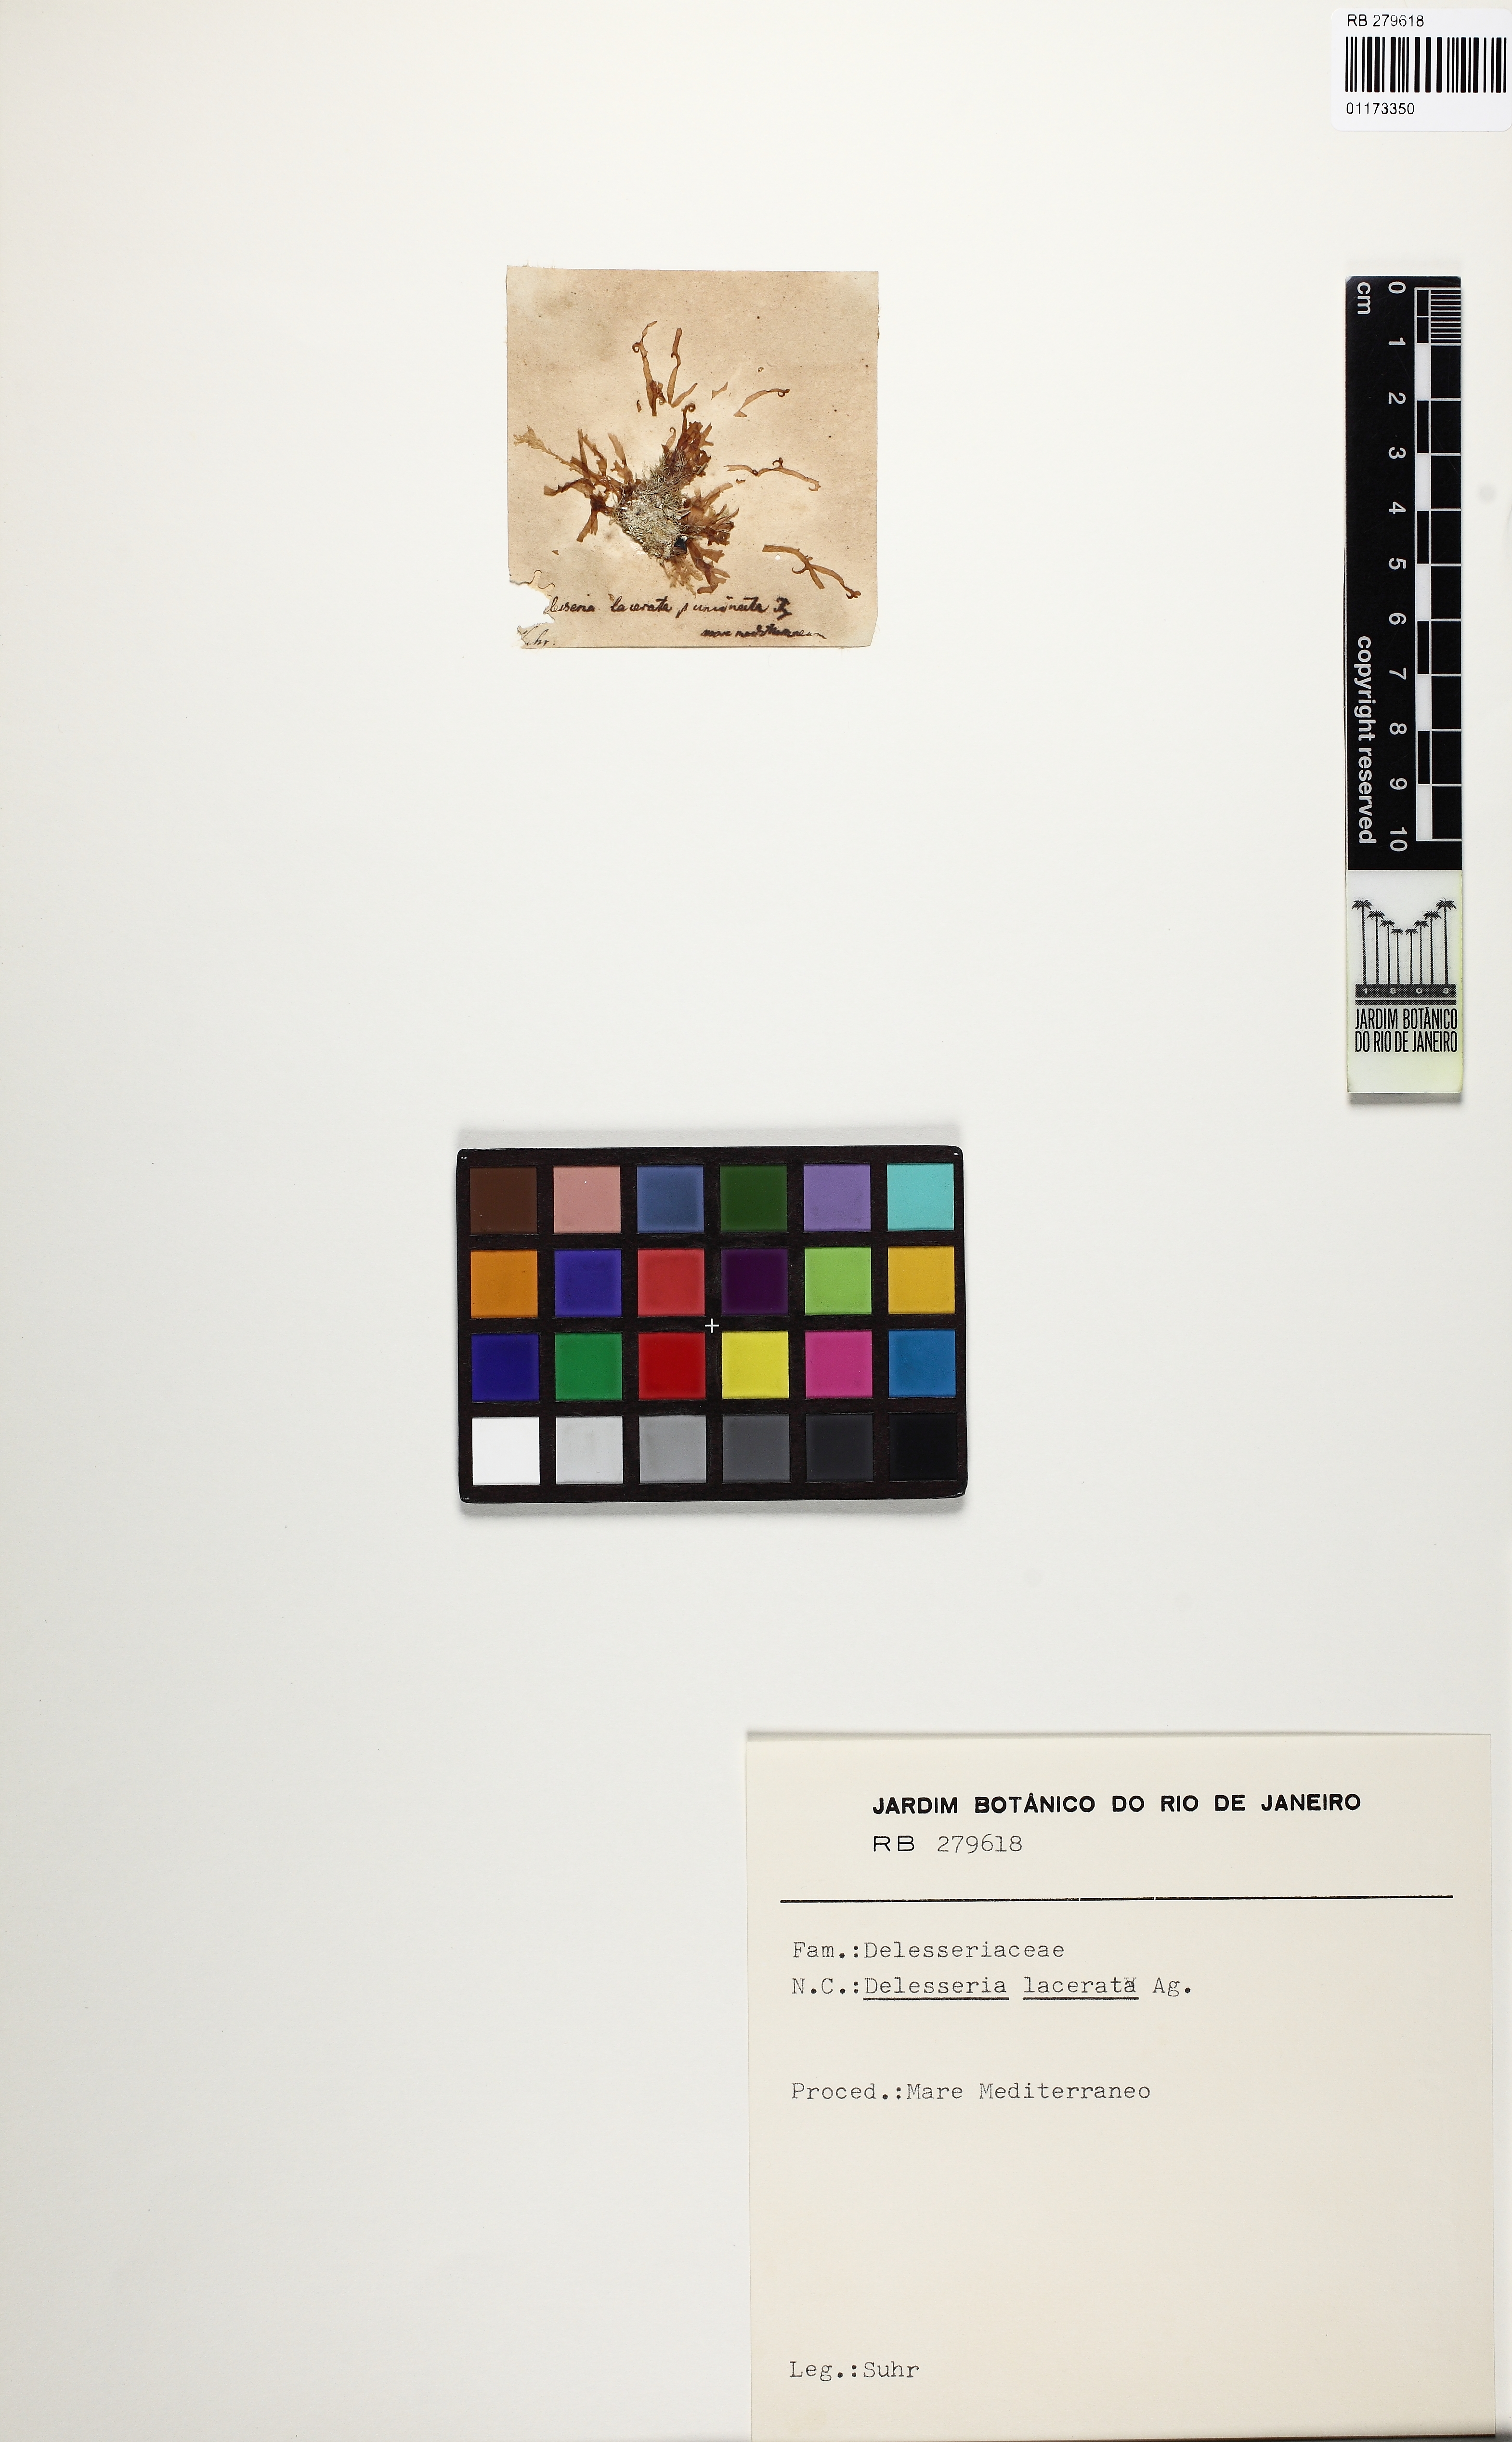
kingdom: Plantae
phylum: Rhodophyta
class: Florideophyceae
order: Ceramiales
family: Delesseriaceae
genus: Cryptopleura
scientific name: Cryptopleura ramosa
